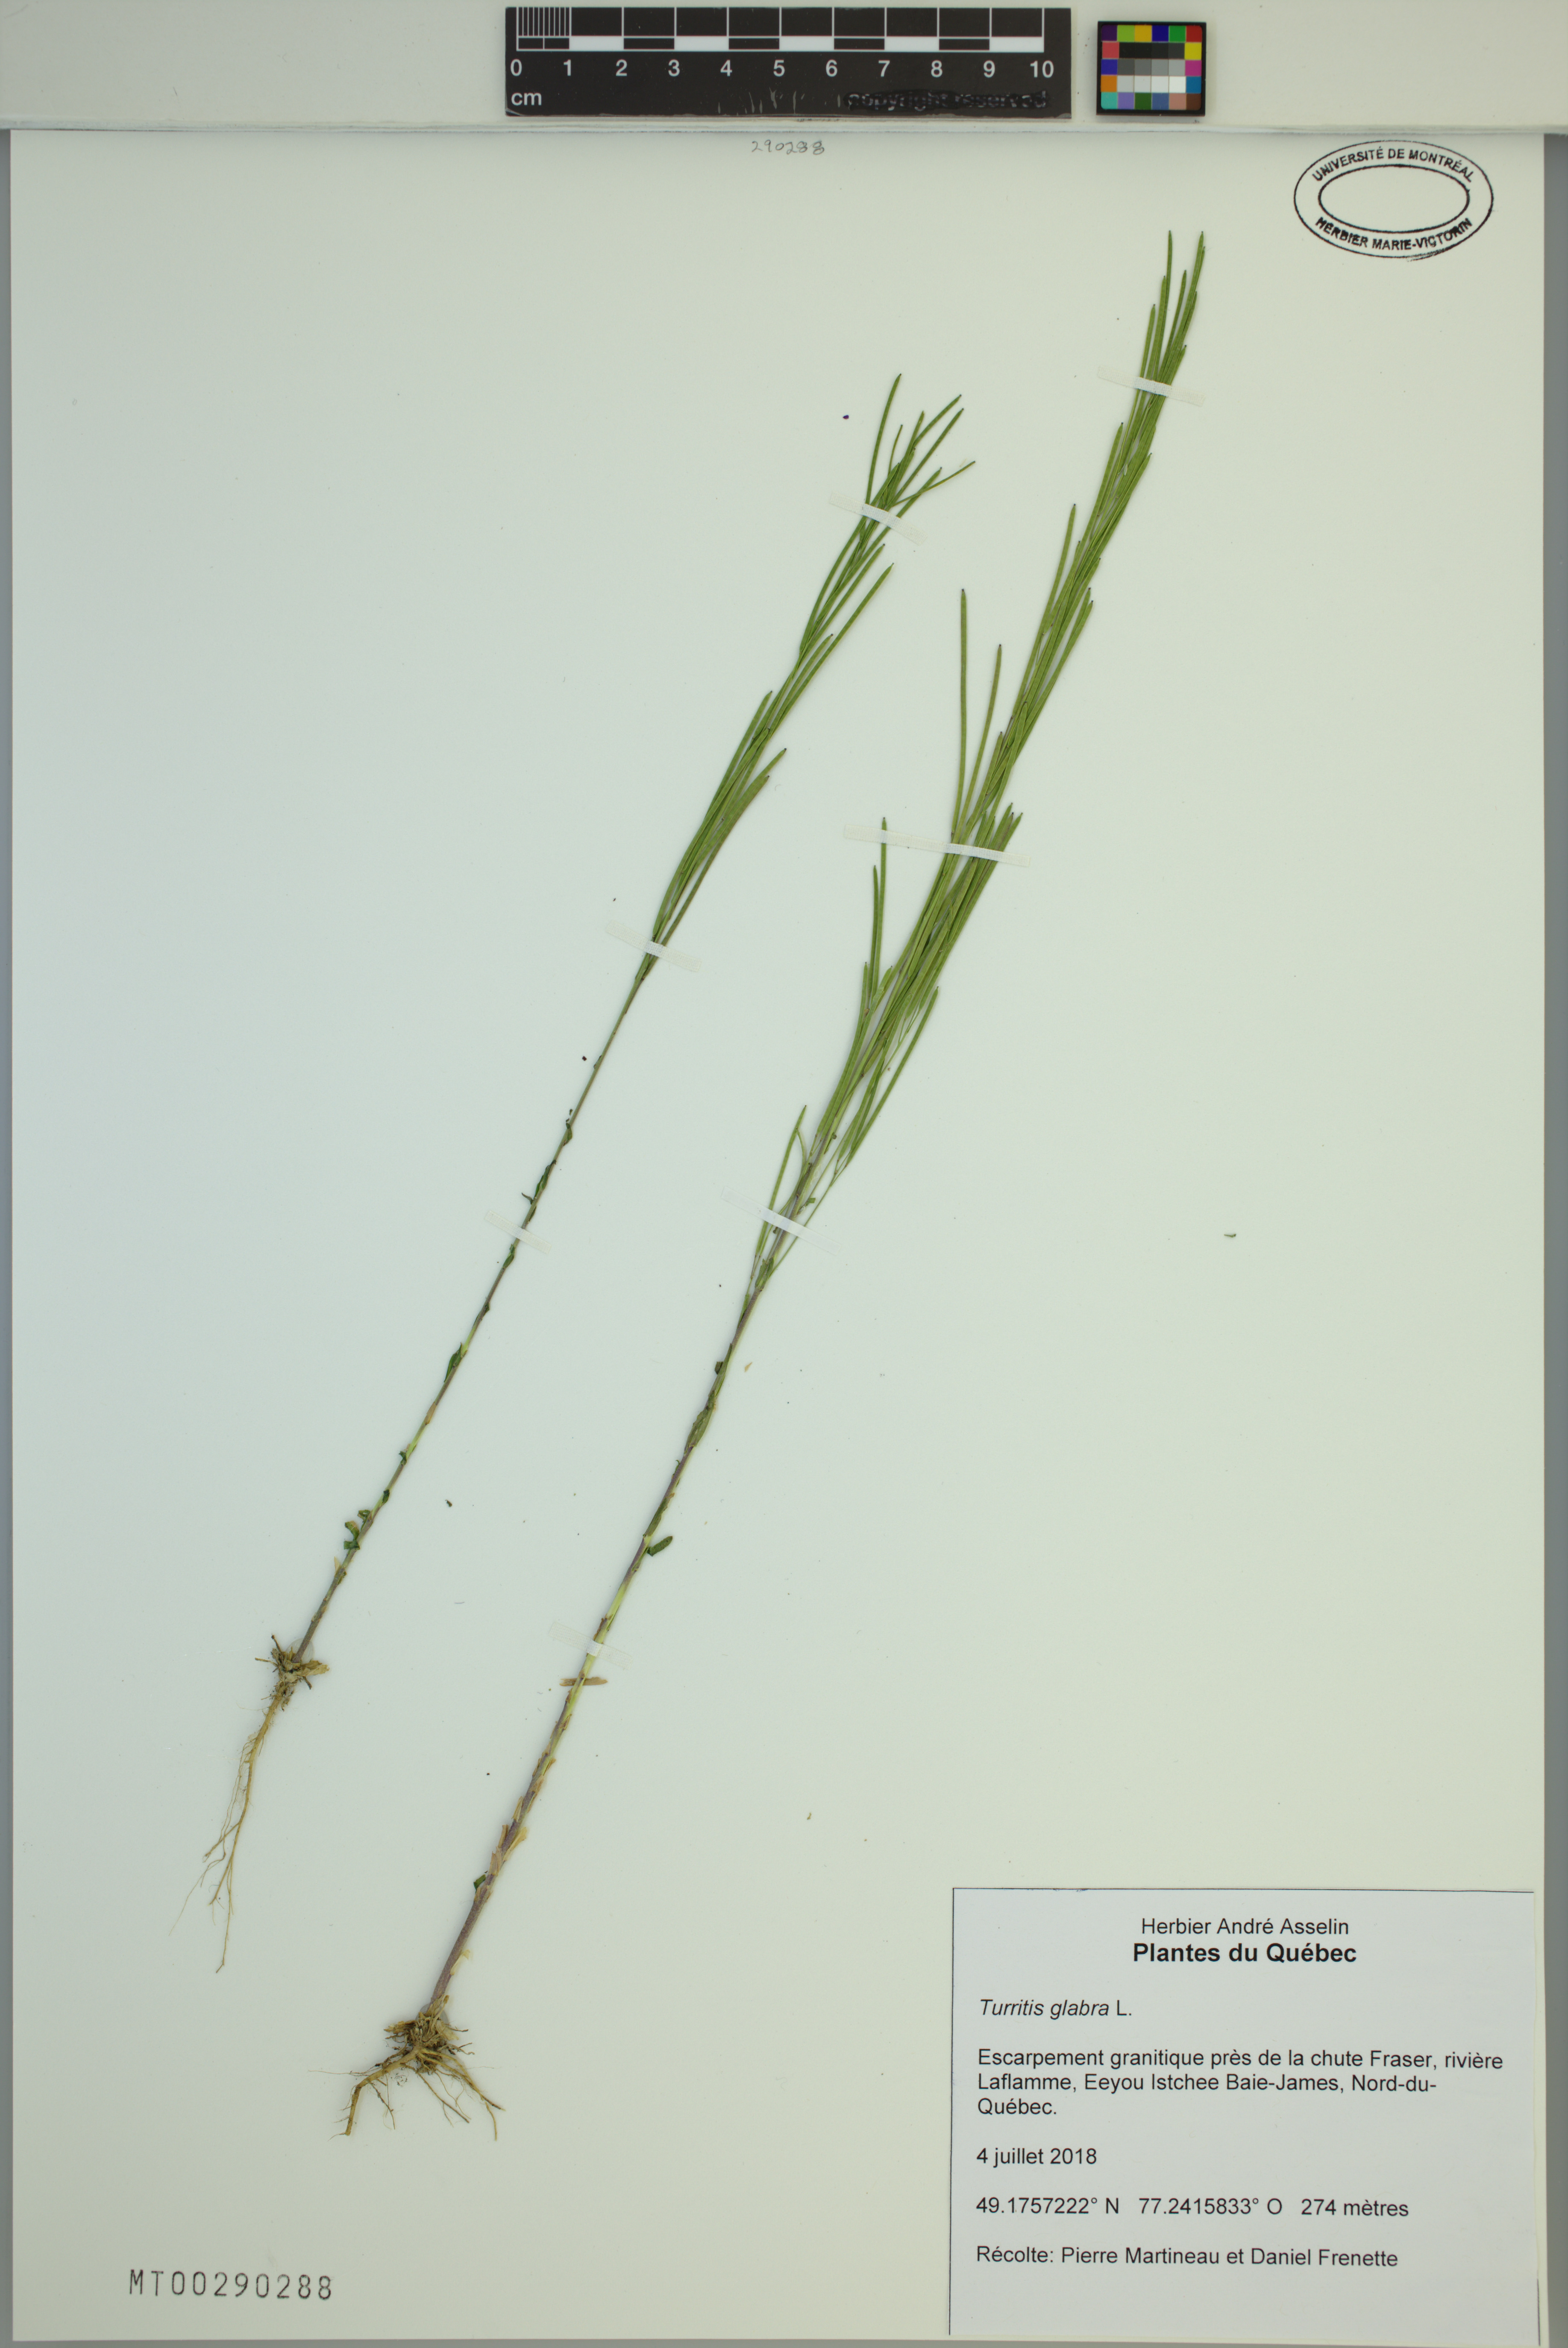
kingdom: Plantae
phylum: Tracheophyta
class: Magnoliopsida
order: Brassicales
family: Brassicaceae
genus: Turritis
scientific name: Turritis glabra
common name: Tower rockcress
